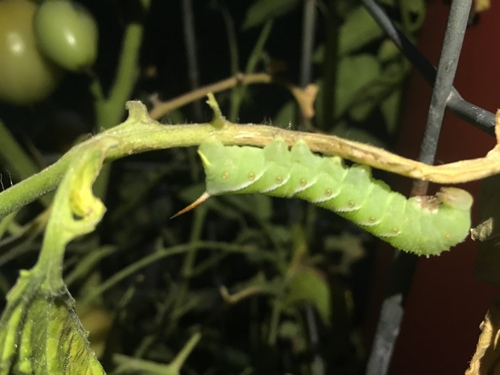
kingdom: Animalia
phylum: Arthropoda
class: Insecta
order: Lepidoptera
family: Sphingidae
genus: Manduca
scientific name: Manduca sexta
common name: Carolina sphinx
